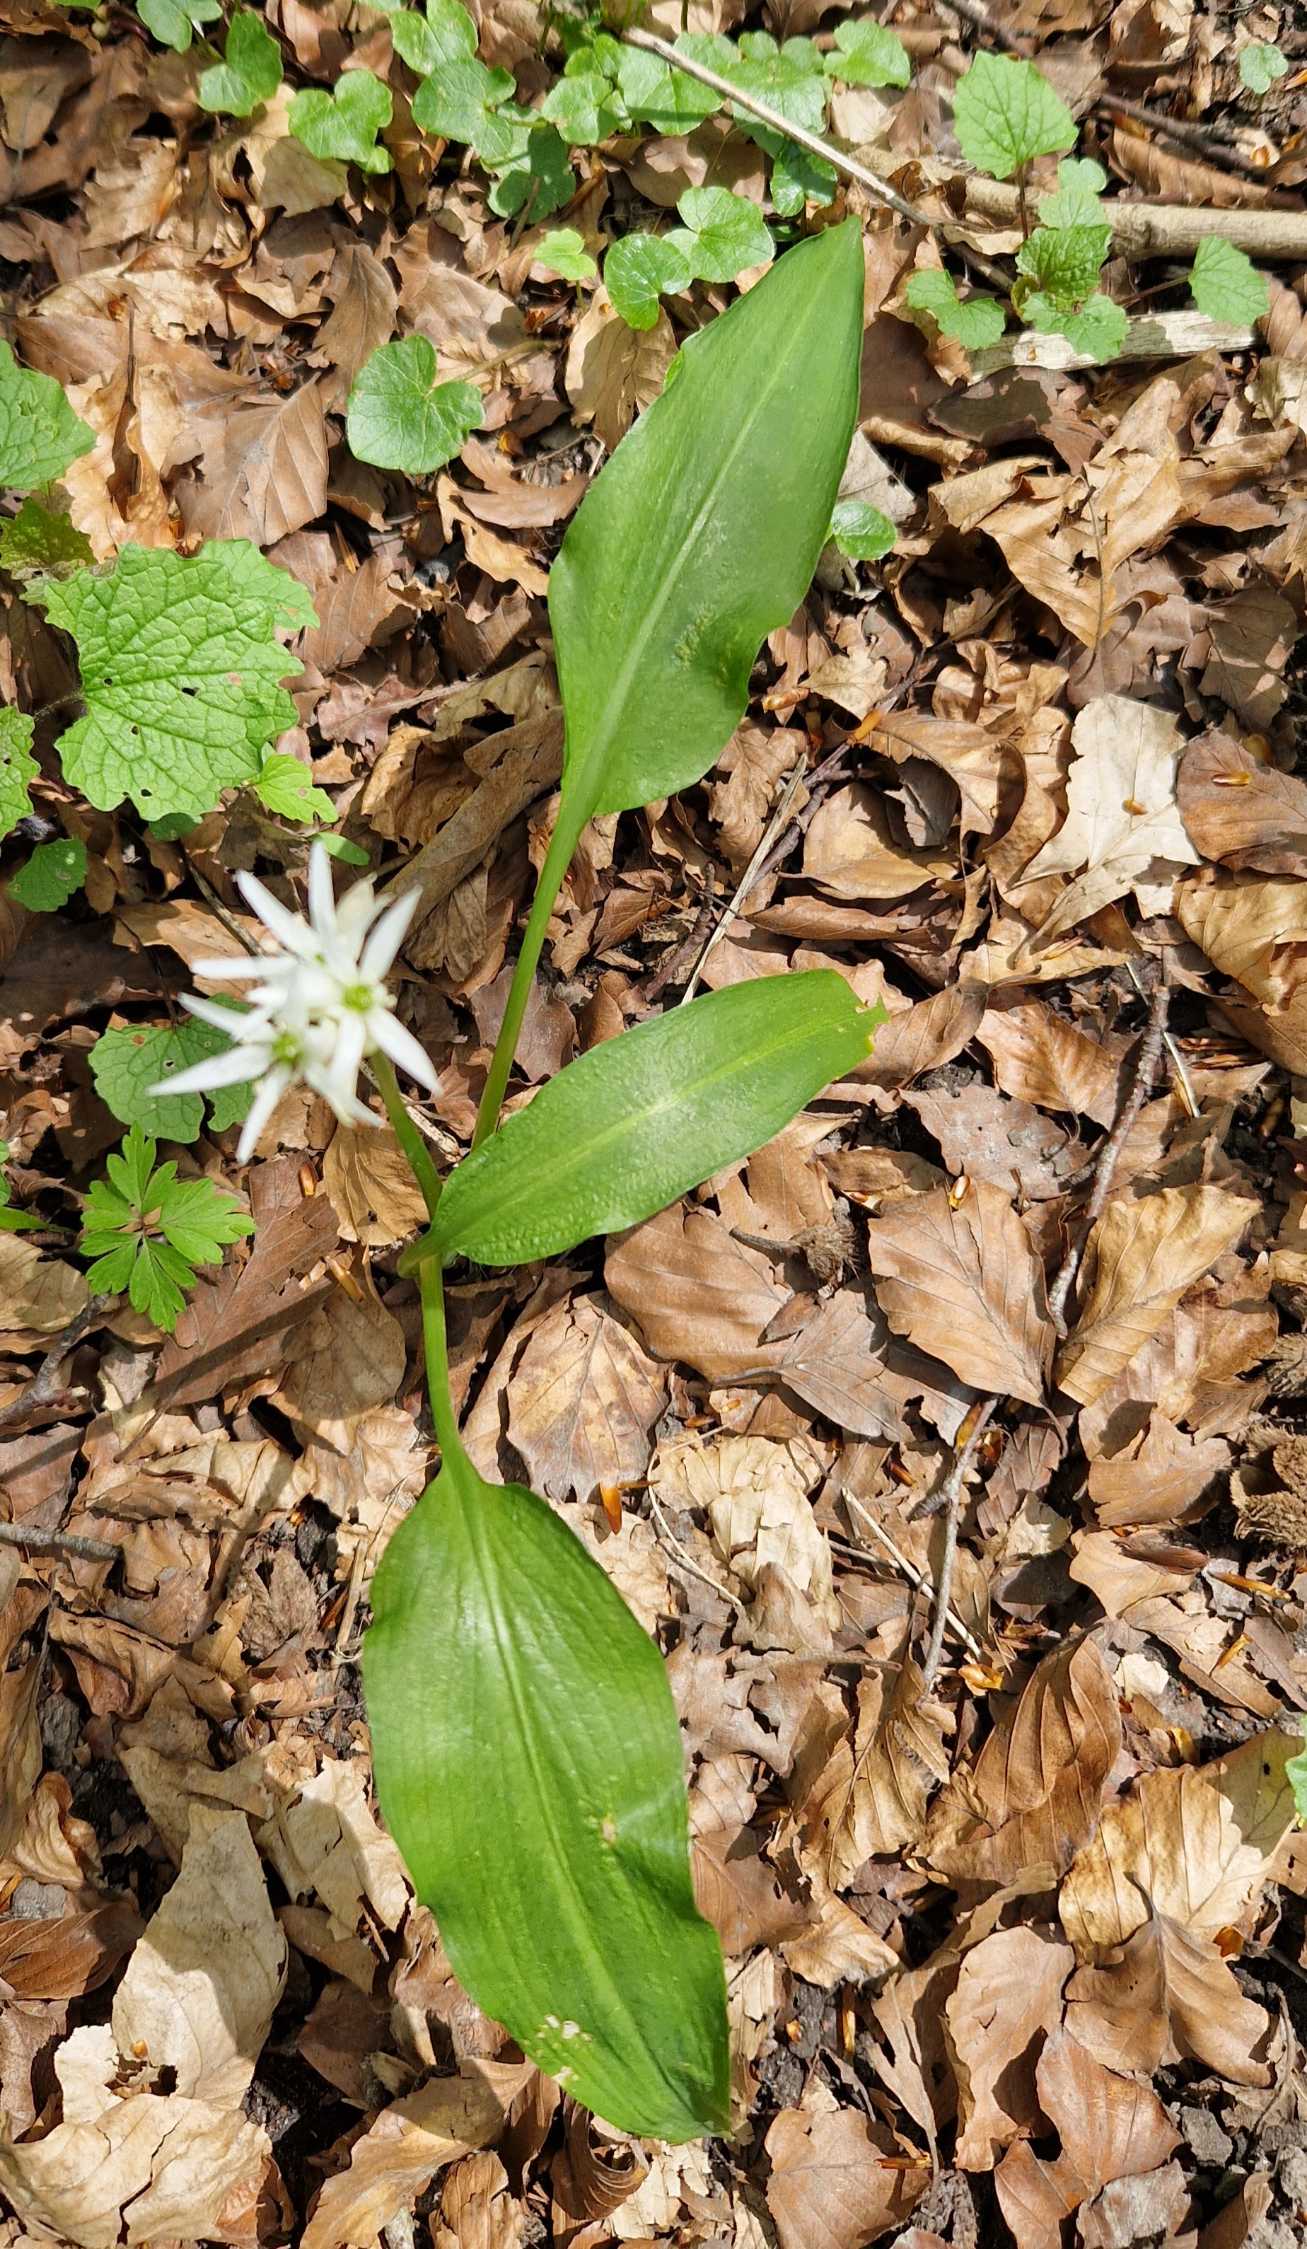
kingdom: Plantae
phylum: Tracheophyta
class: Liliopsida
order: Asparagales
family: Amaryllidaceae
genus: Allium
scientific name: Allium ursinum
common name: Rams-løg
